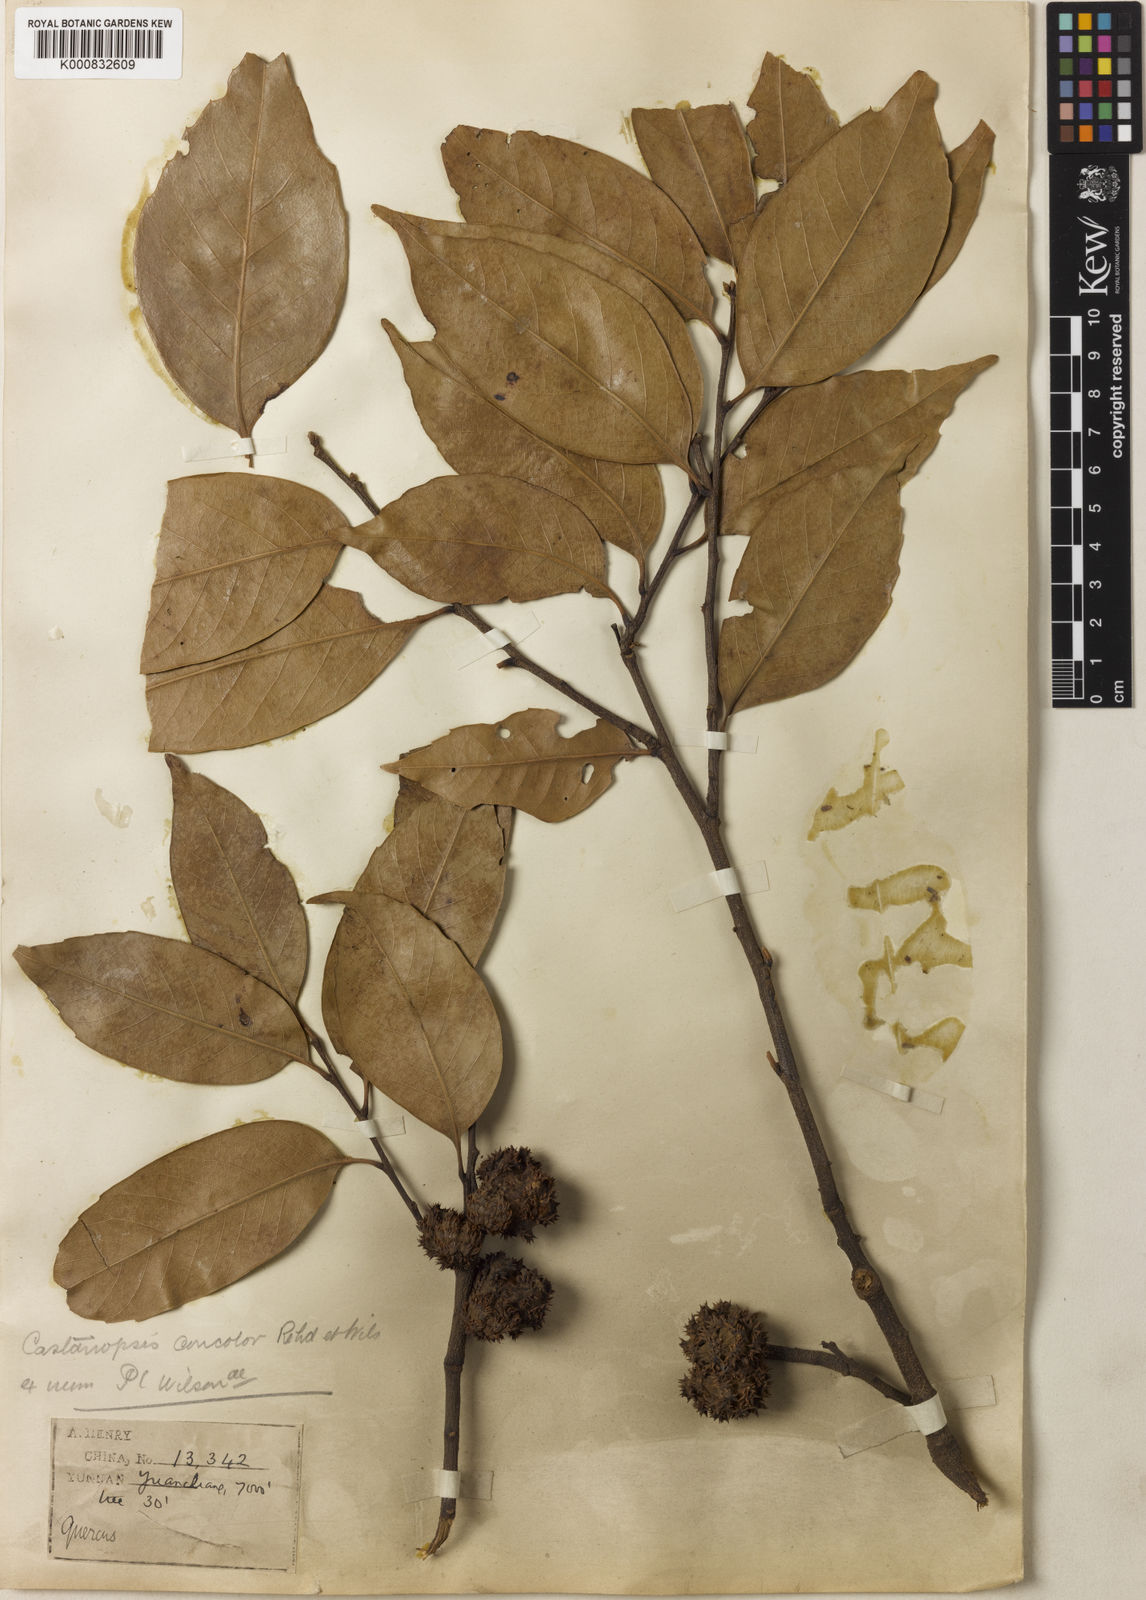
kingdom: Plantae
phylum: Tracheophyta
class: Magnoliopsida
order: Fagales
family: Fagaceae
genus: Castanopsis
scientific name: Castanopsis orthacantha
